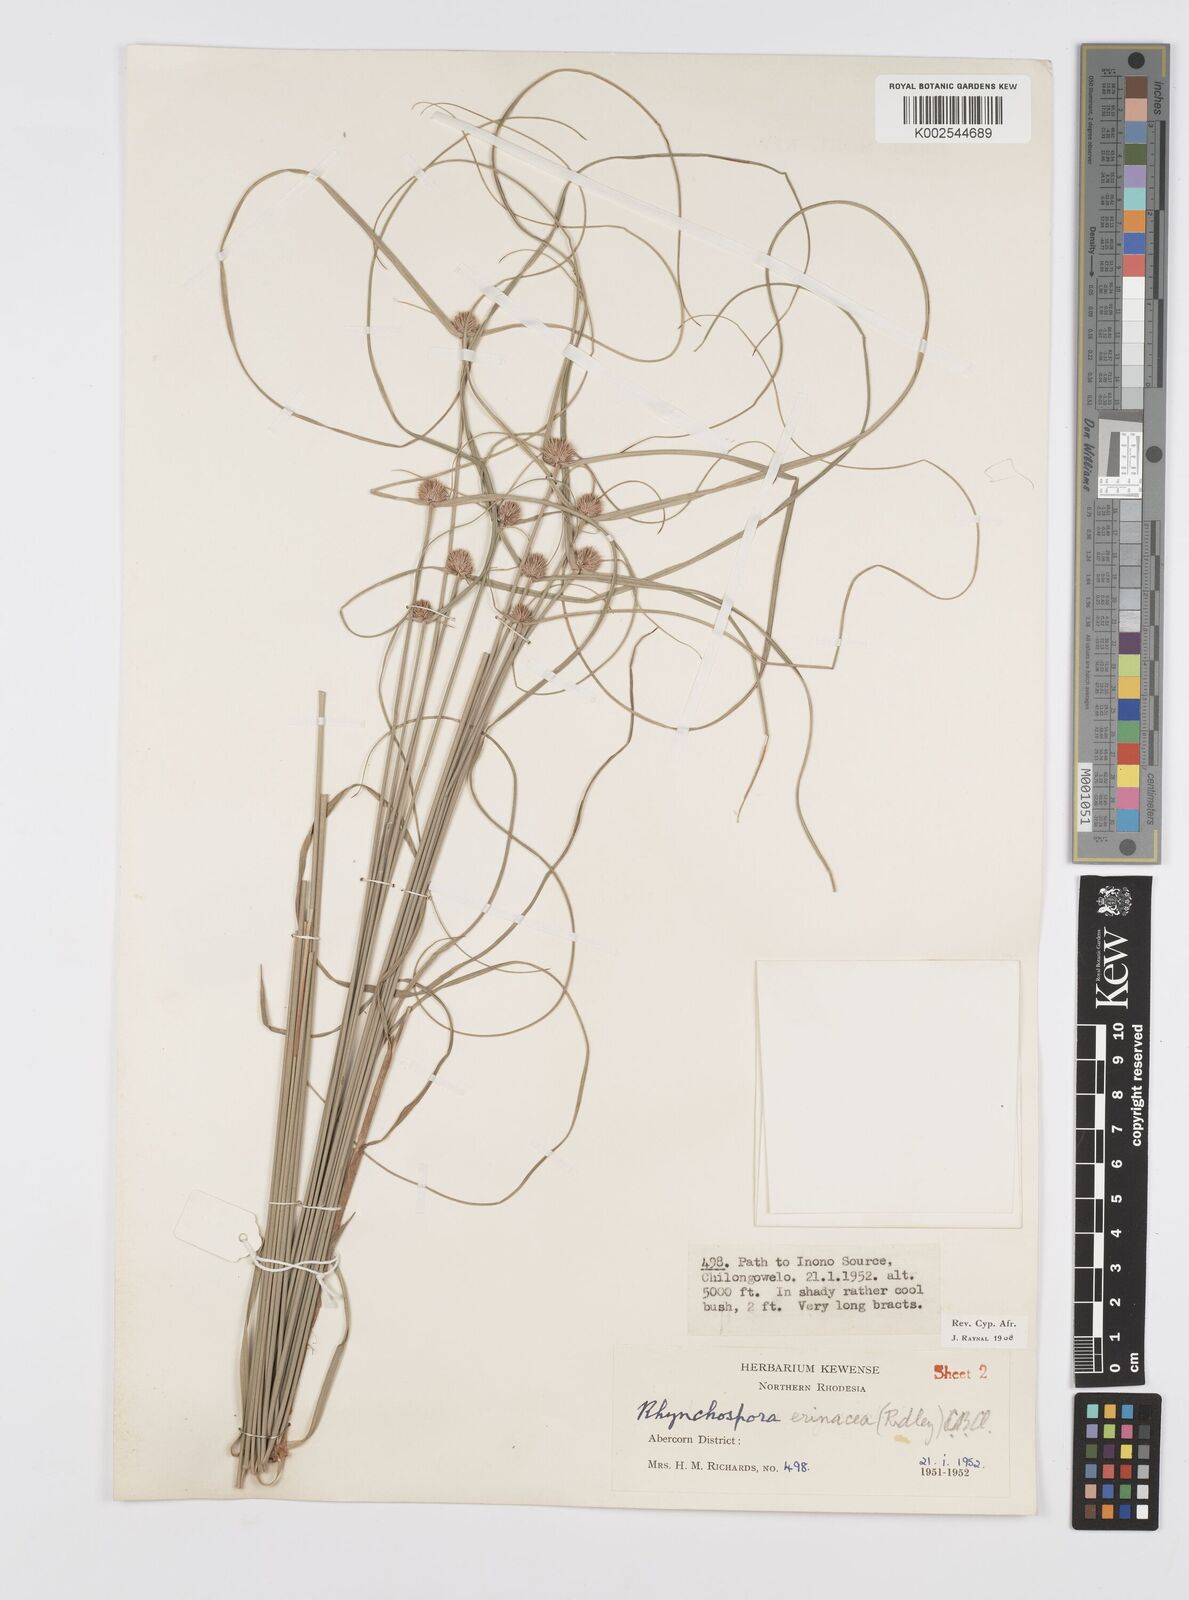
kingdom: Plantae
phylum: Tracheophyta
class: Liliopsida
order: Poales
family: Cyperaceae
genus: Cyperus
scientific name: Cyperus erinaceus
